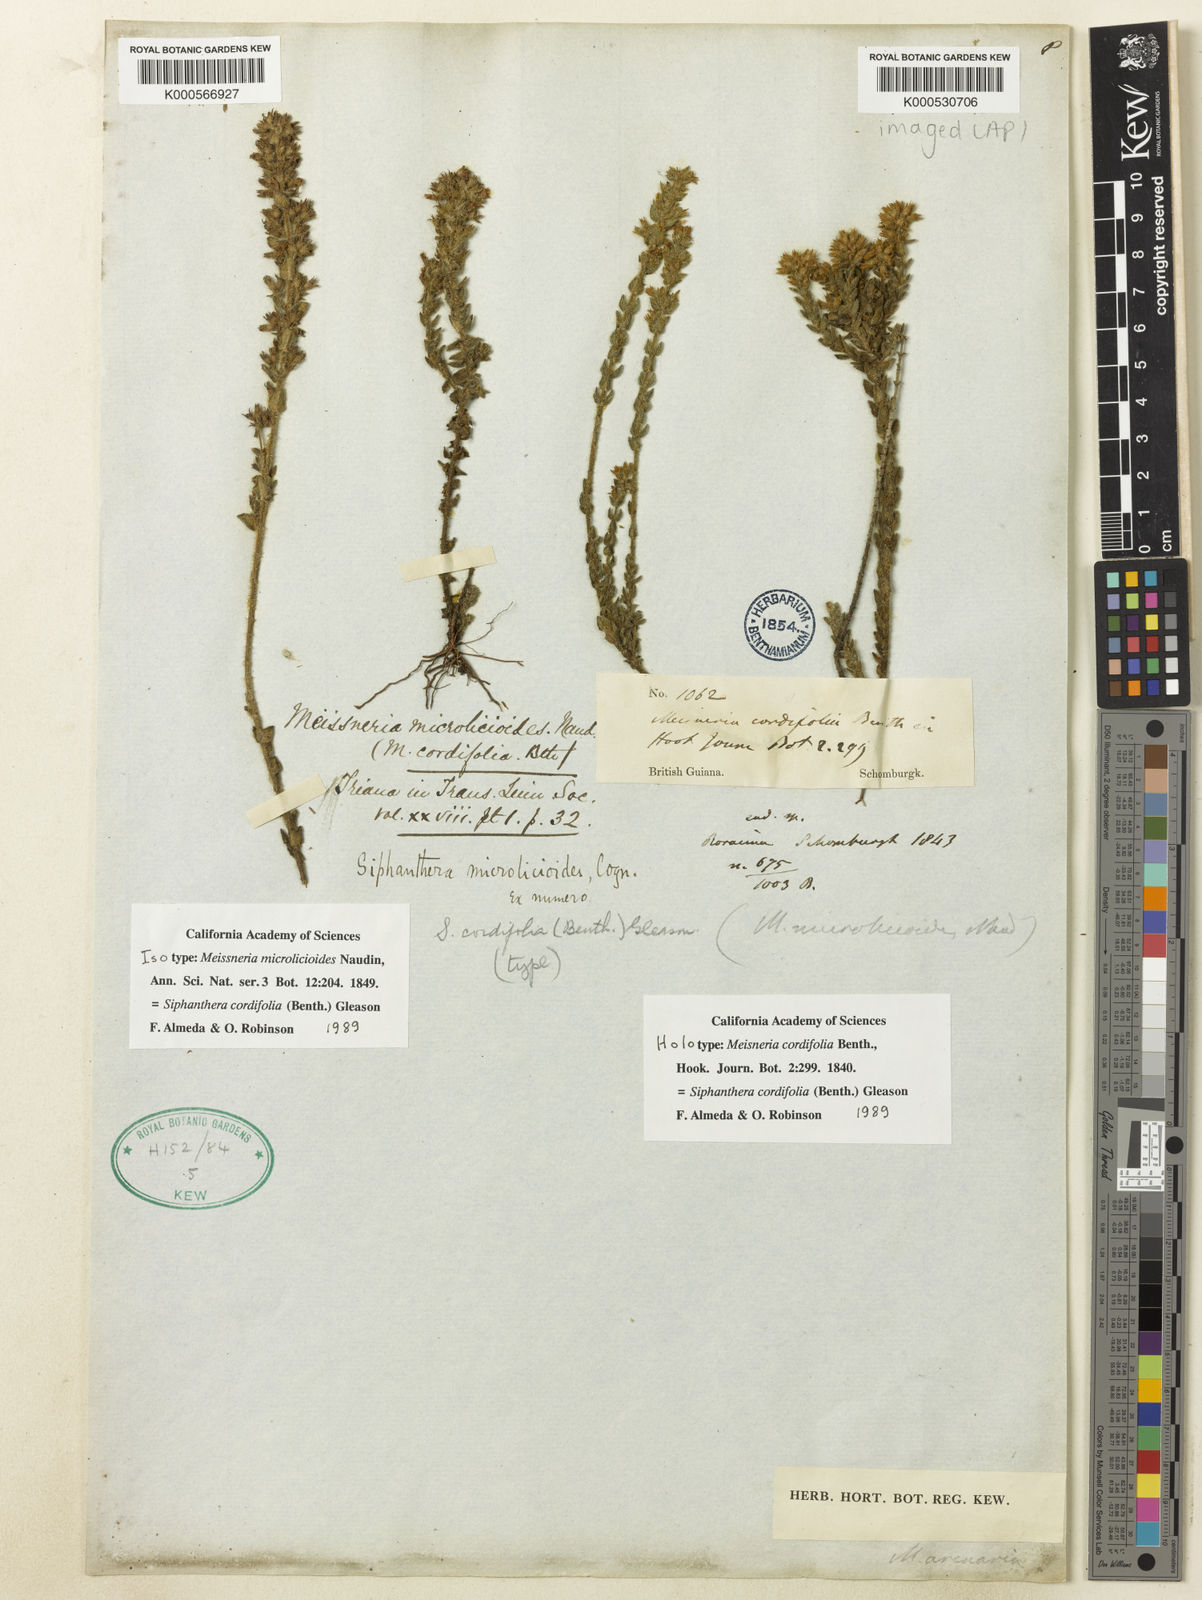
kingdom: Plantae
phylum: Tracheophyta
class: Magnoliopsida
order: Myrtales
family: Melastomataceae
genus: Siphanthera
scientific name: Siphanthera cordifolia
